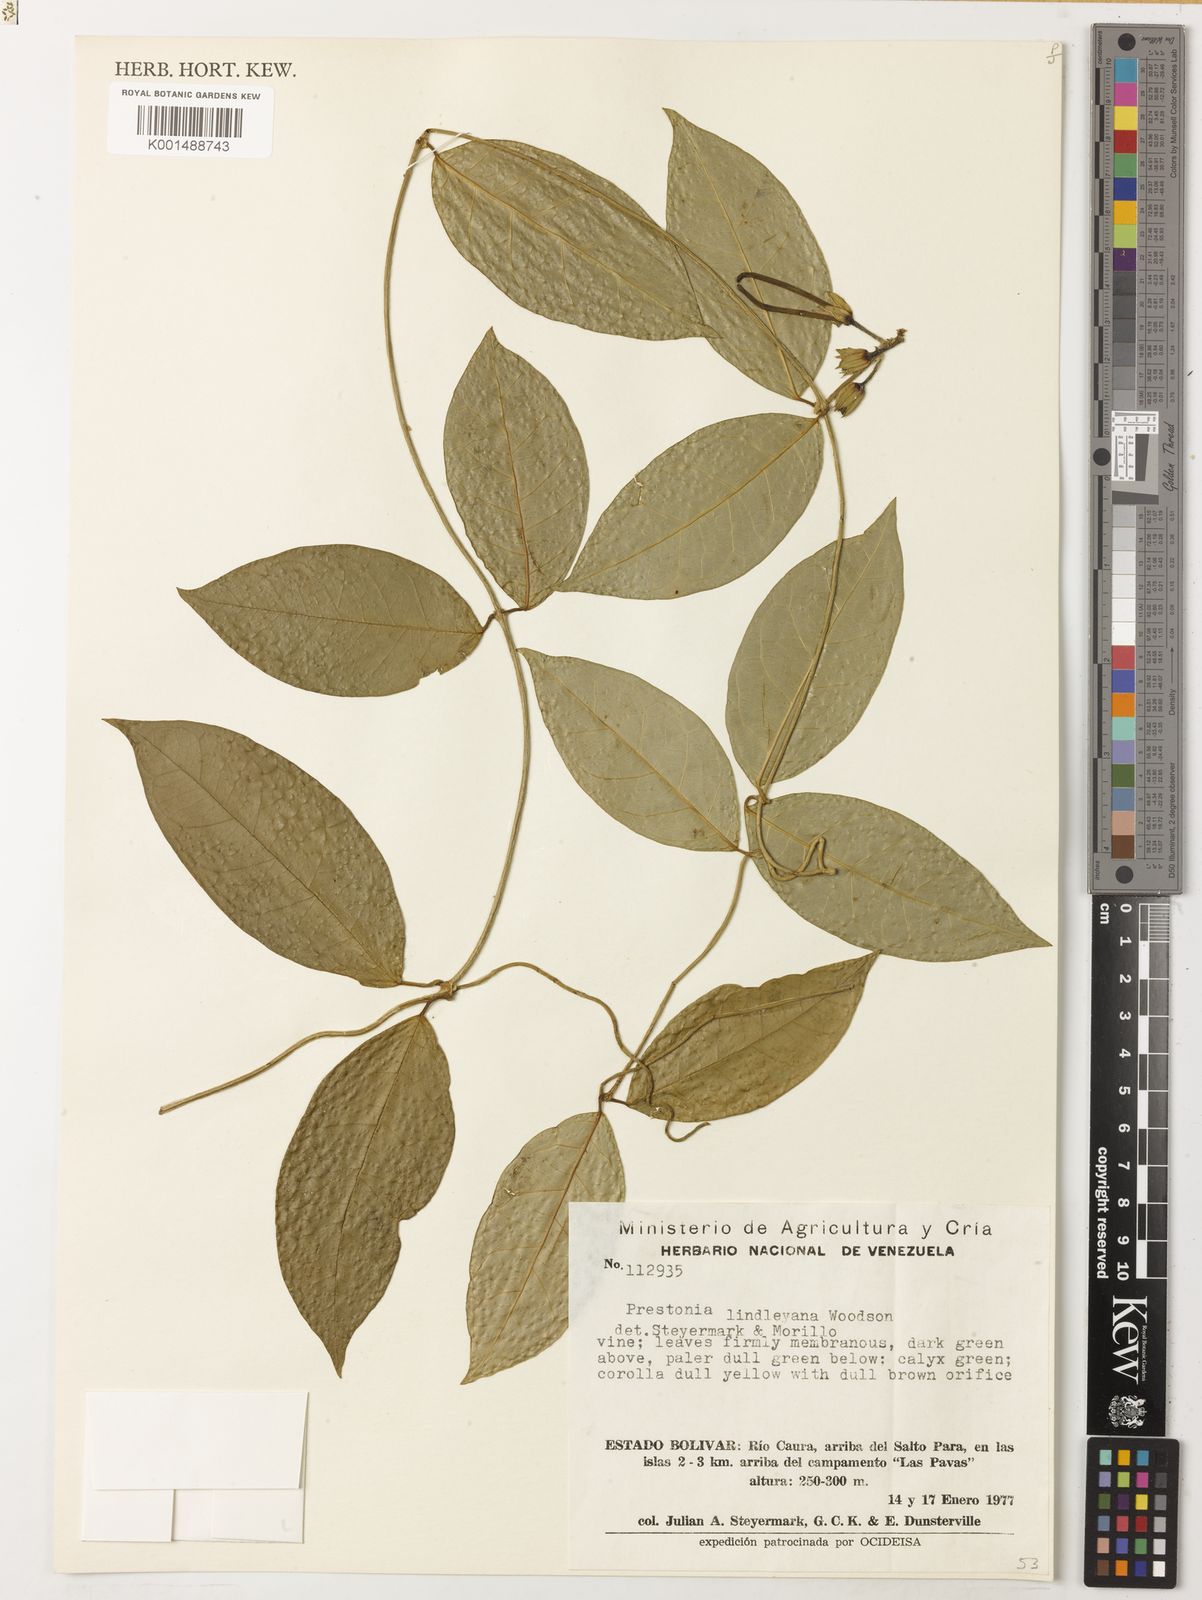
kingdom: Plantae
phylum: Tracheophyta
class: Magnoliopsida
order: Gentianales
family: Apocynaceae
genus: Prestonia
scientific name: Prestonia lindleyana
